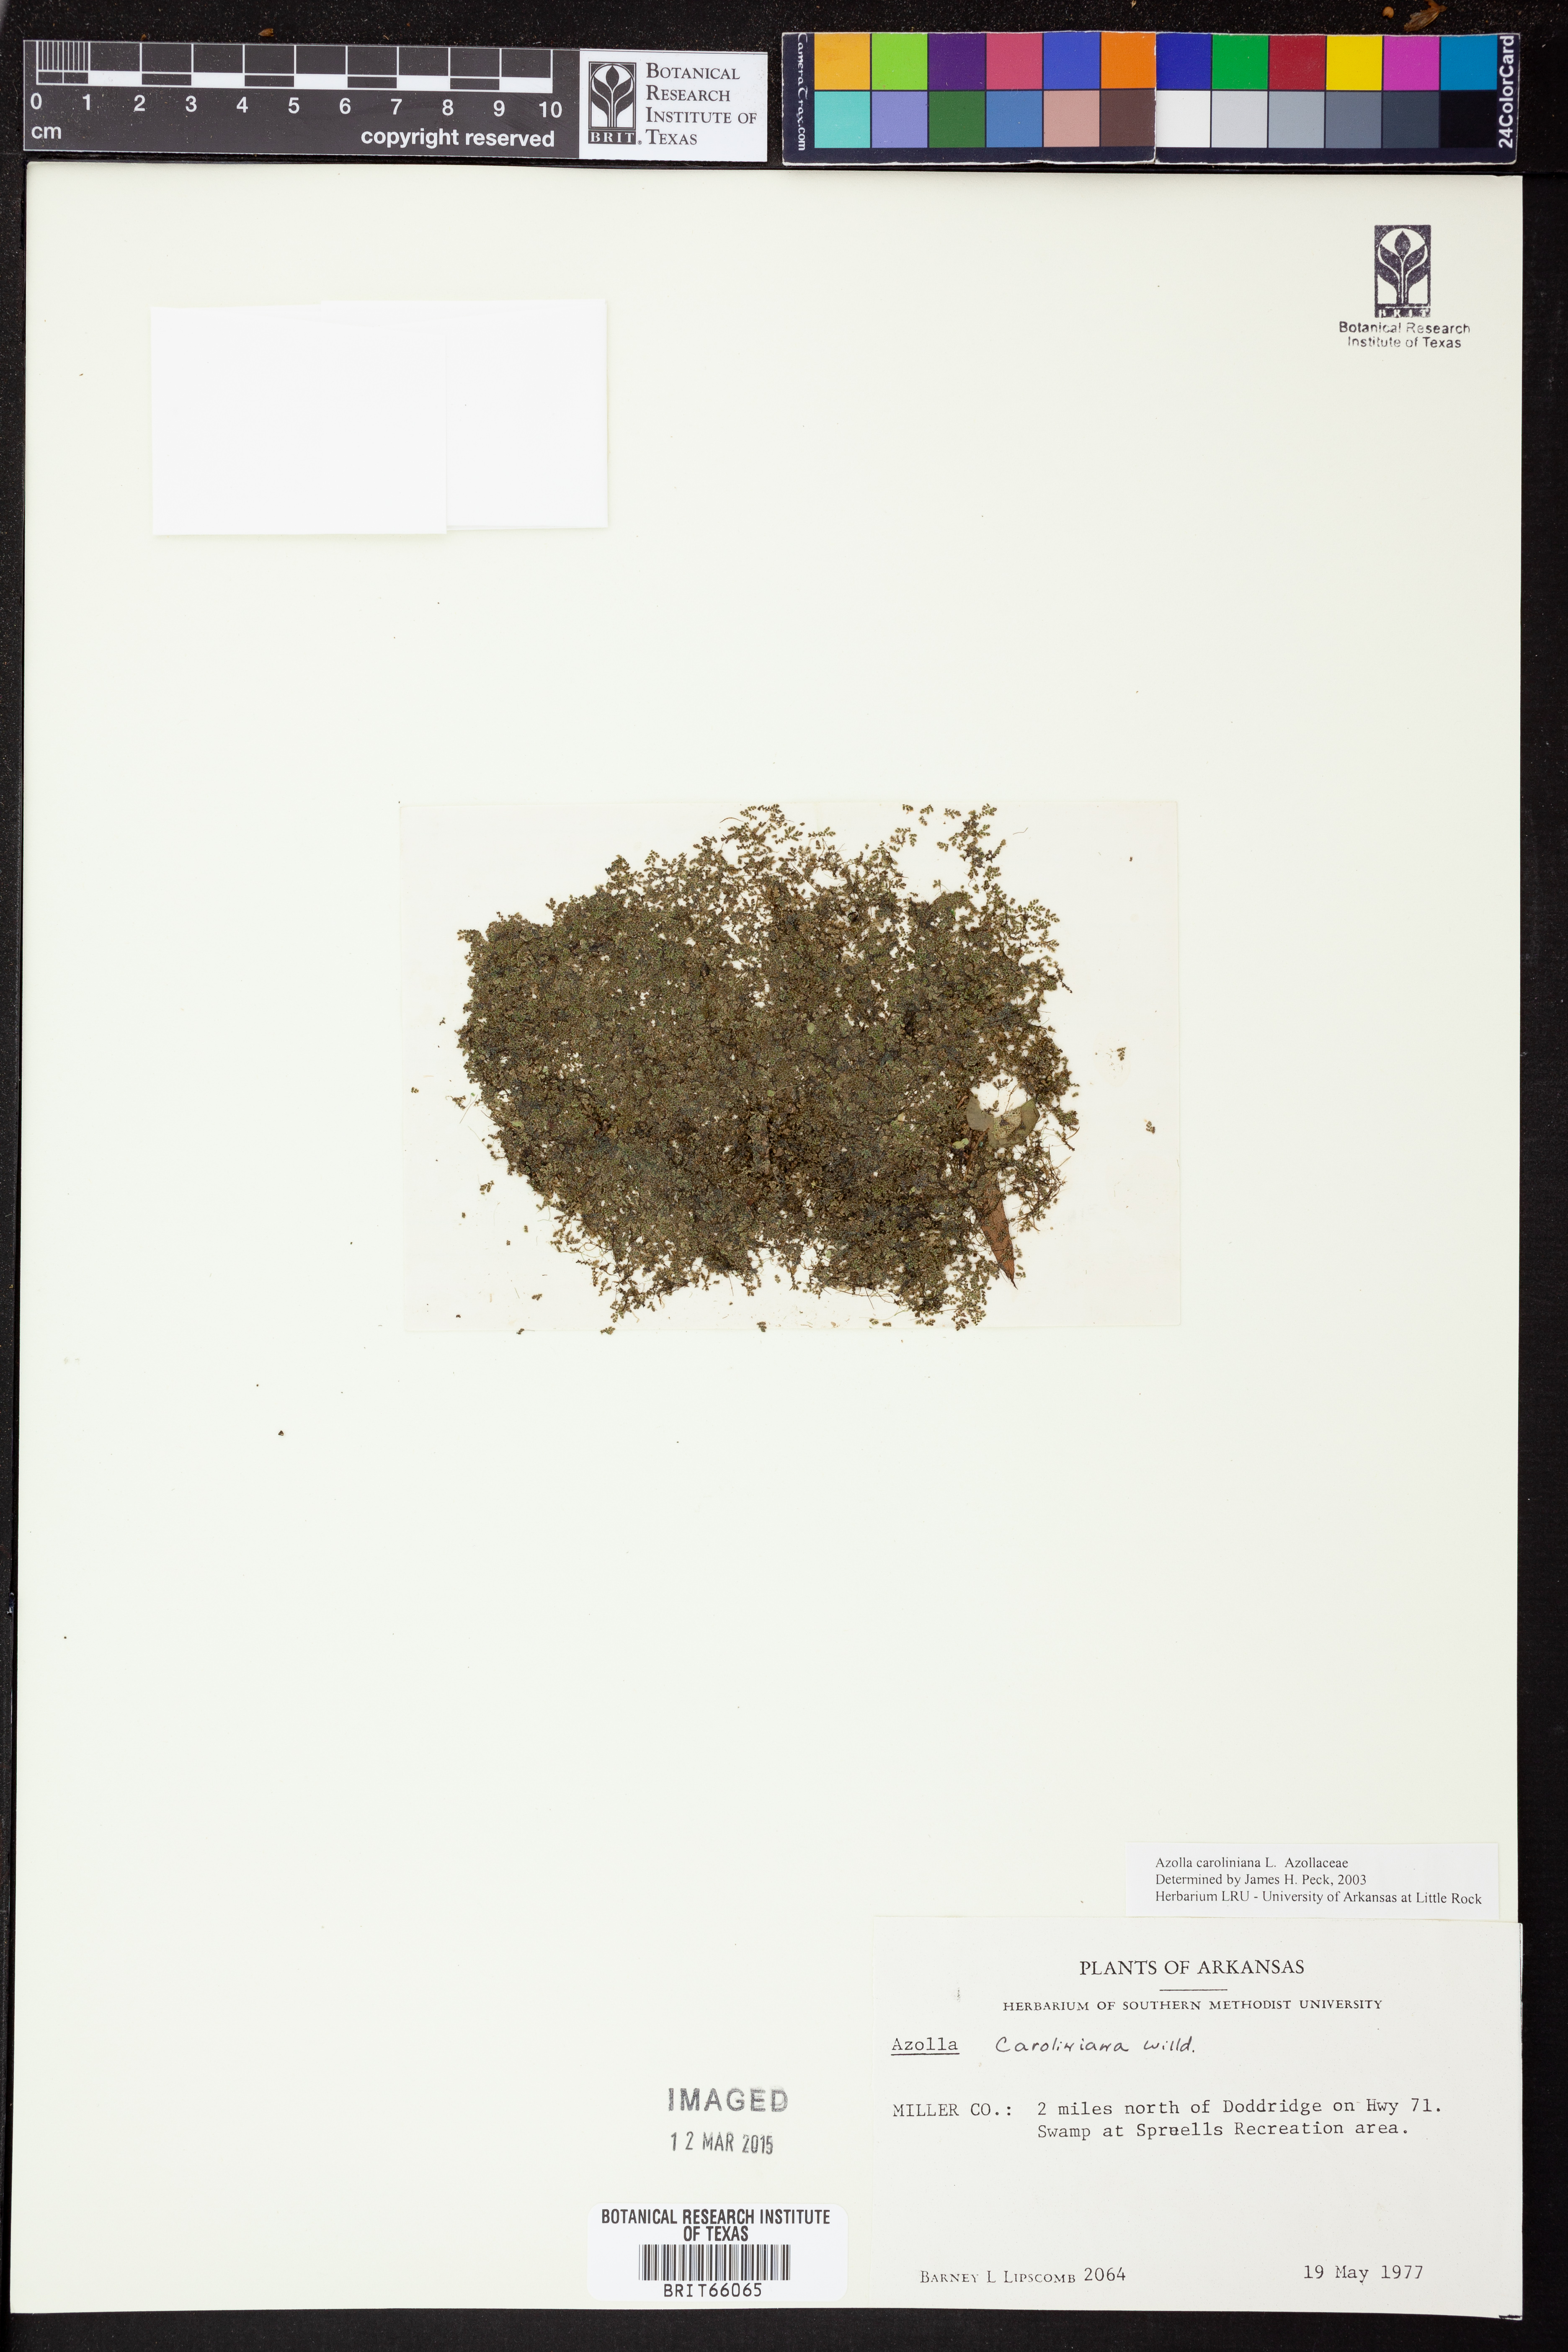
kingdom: Plantae
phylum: Tracheophyta
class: Polypodiopsida
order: Salviniales
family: Salviniaceae
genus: Azolla
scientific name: Azolla caroliniana
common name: Carolina mosquitofern
